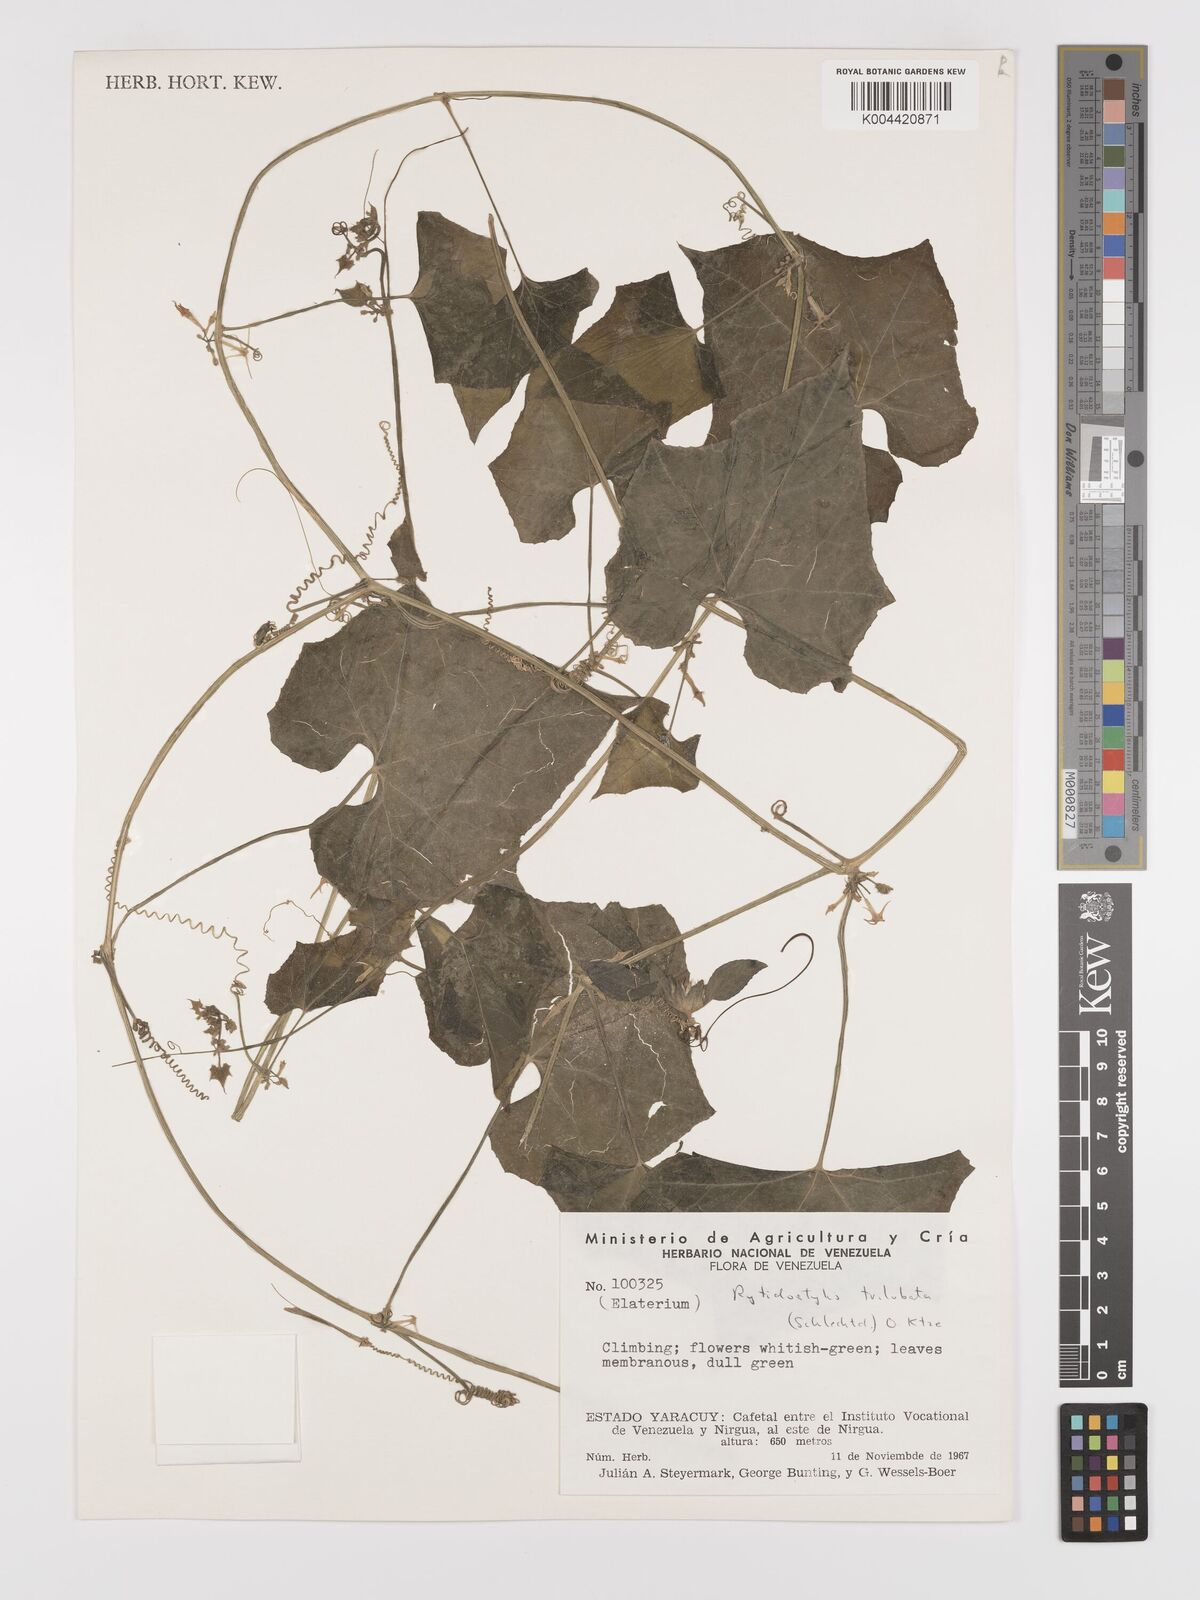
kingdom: Plantae
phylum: Tracheophyta
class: Magnoliopsida
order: Cucurbitales
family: Cucurbitaceae
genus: Cyclanthera
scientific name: Cyclanthera carthagenensis
